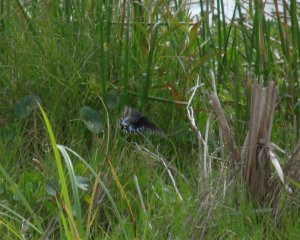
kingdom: Animalia
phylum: Arthropoda
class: Insecta
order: Lepidoptera
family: Papilionidae
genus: Papilio
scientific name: Papilio polyxenes
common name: Black Swallowtail
